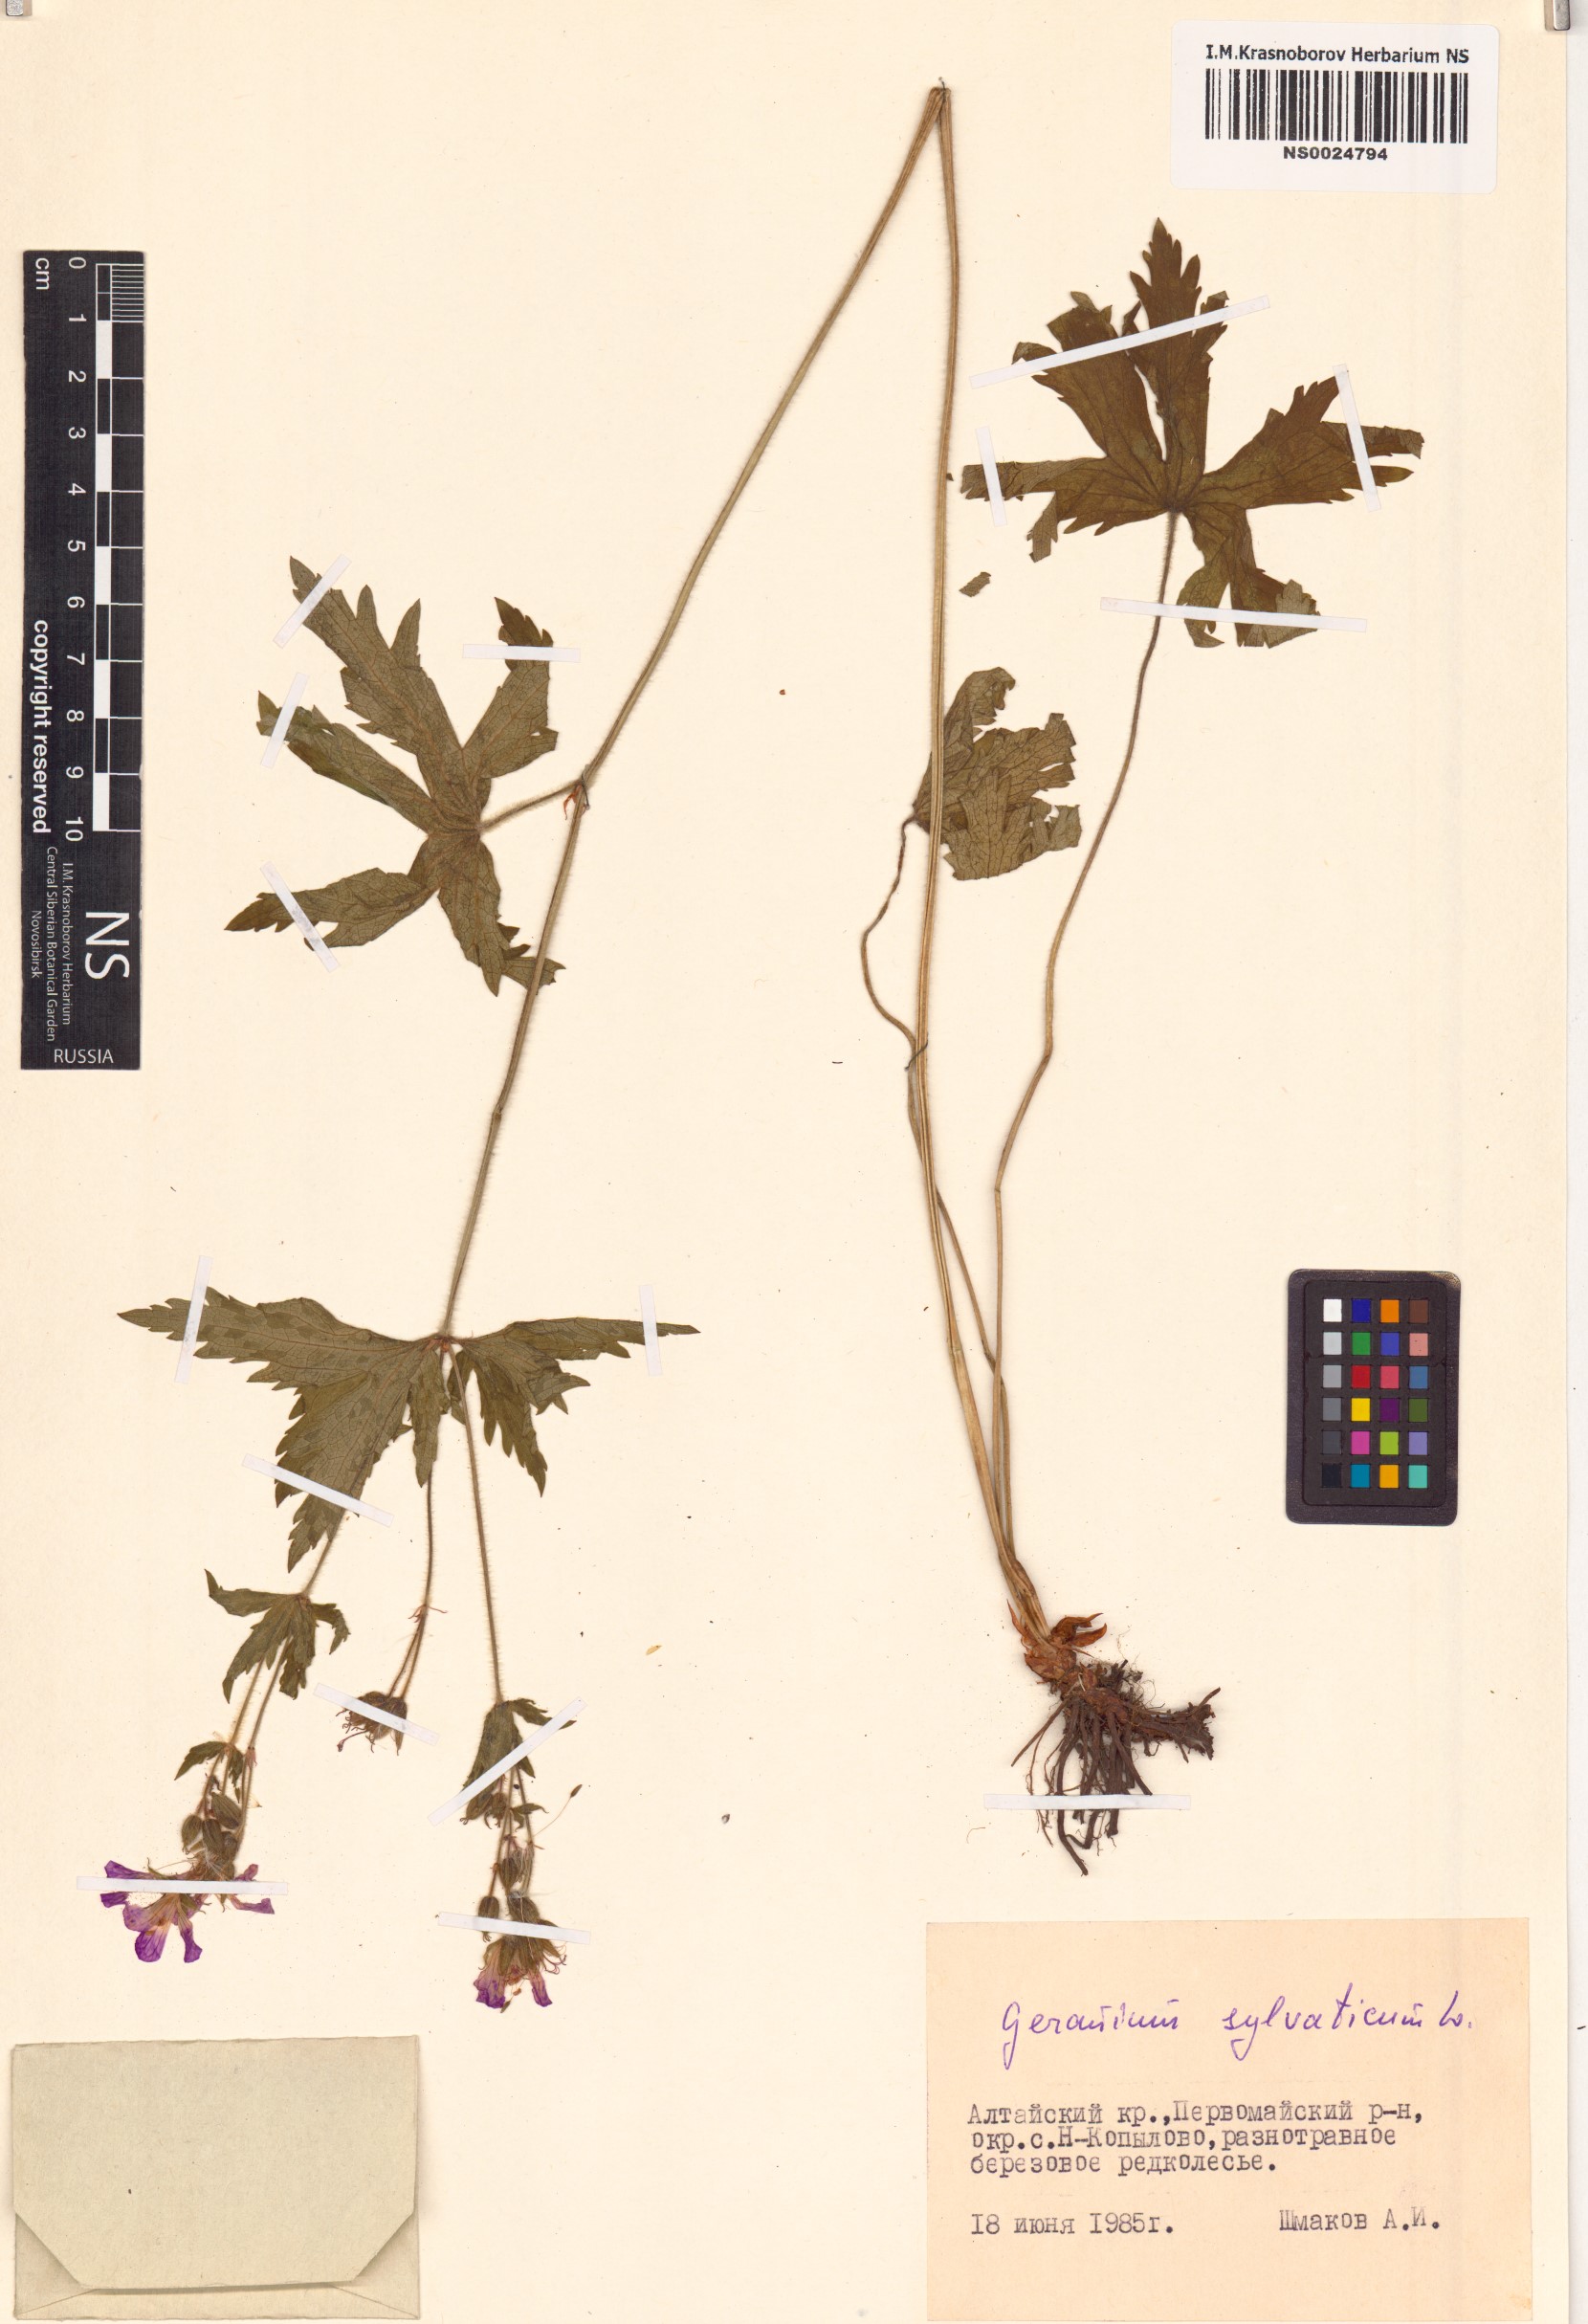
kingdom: Plantae
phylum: Tracheophyta
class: Magnoliopsida
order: Geraniales
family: Geraniaceae
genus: Geranium
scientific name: Geranium sylvaticum
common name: Wood crane's-bill
